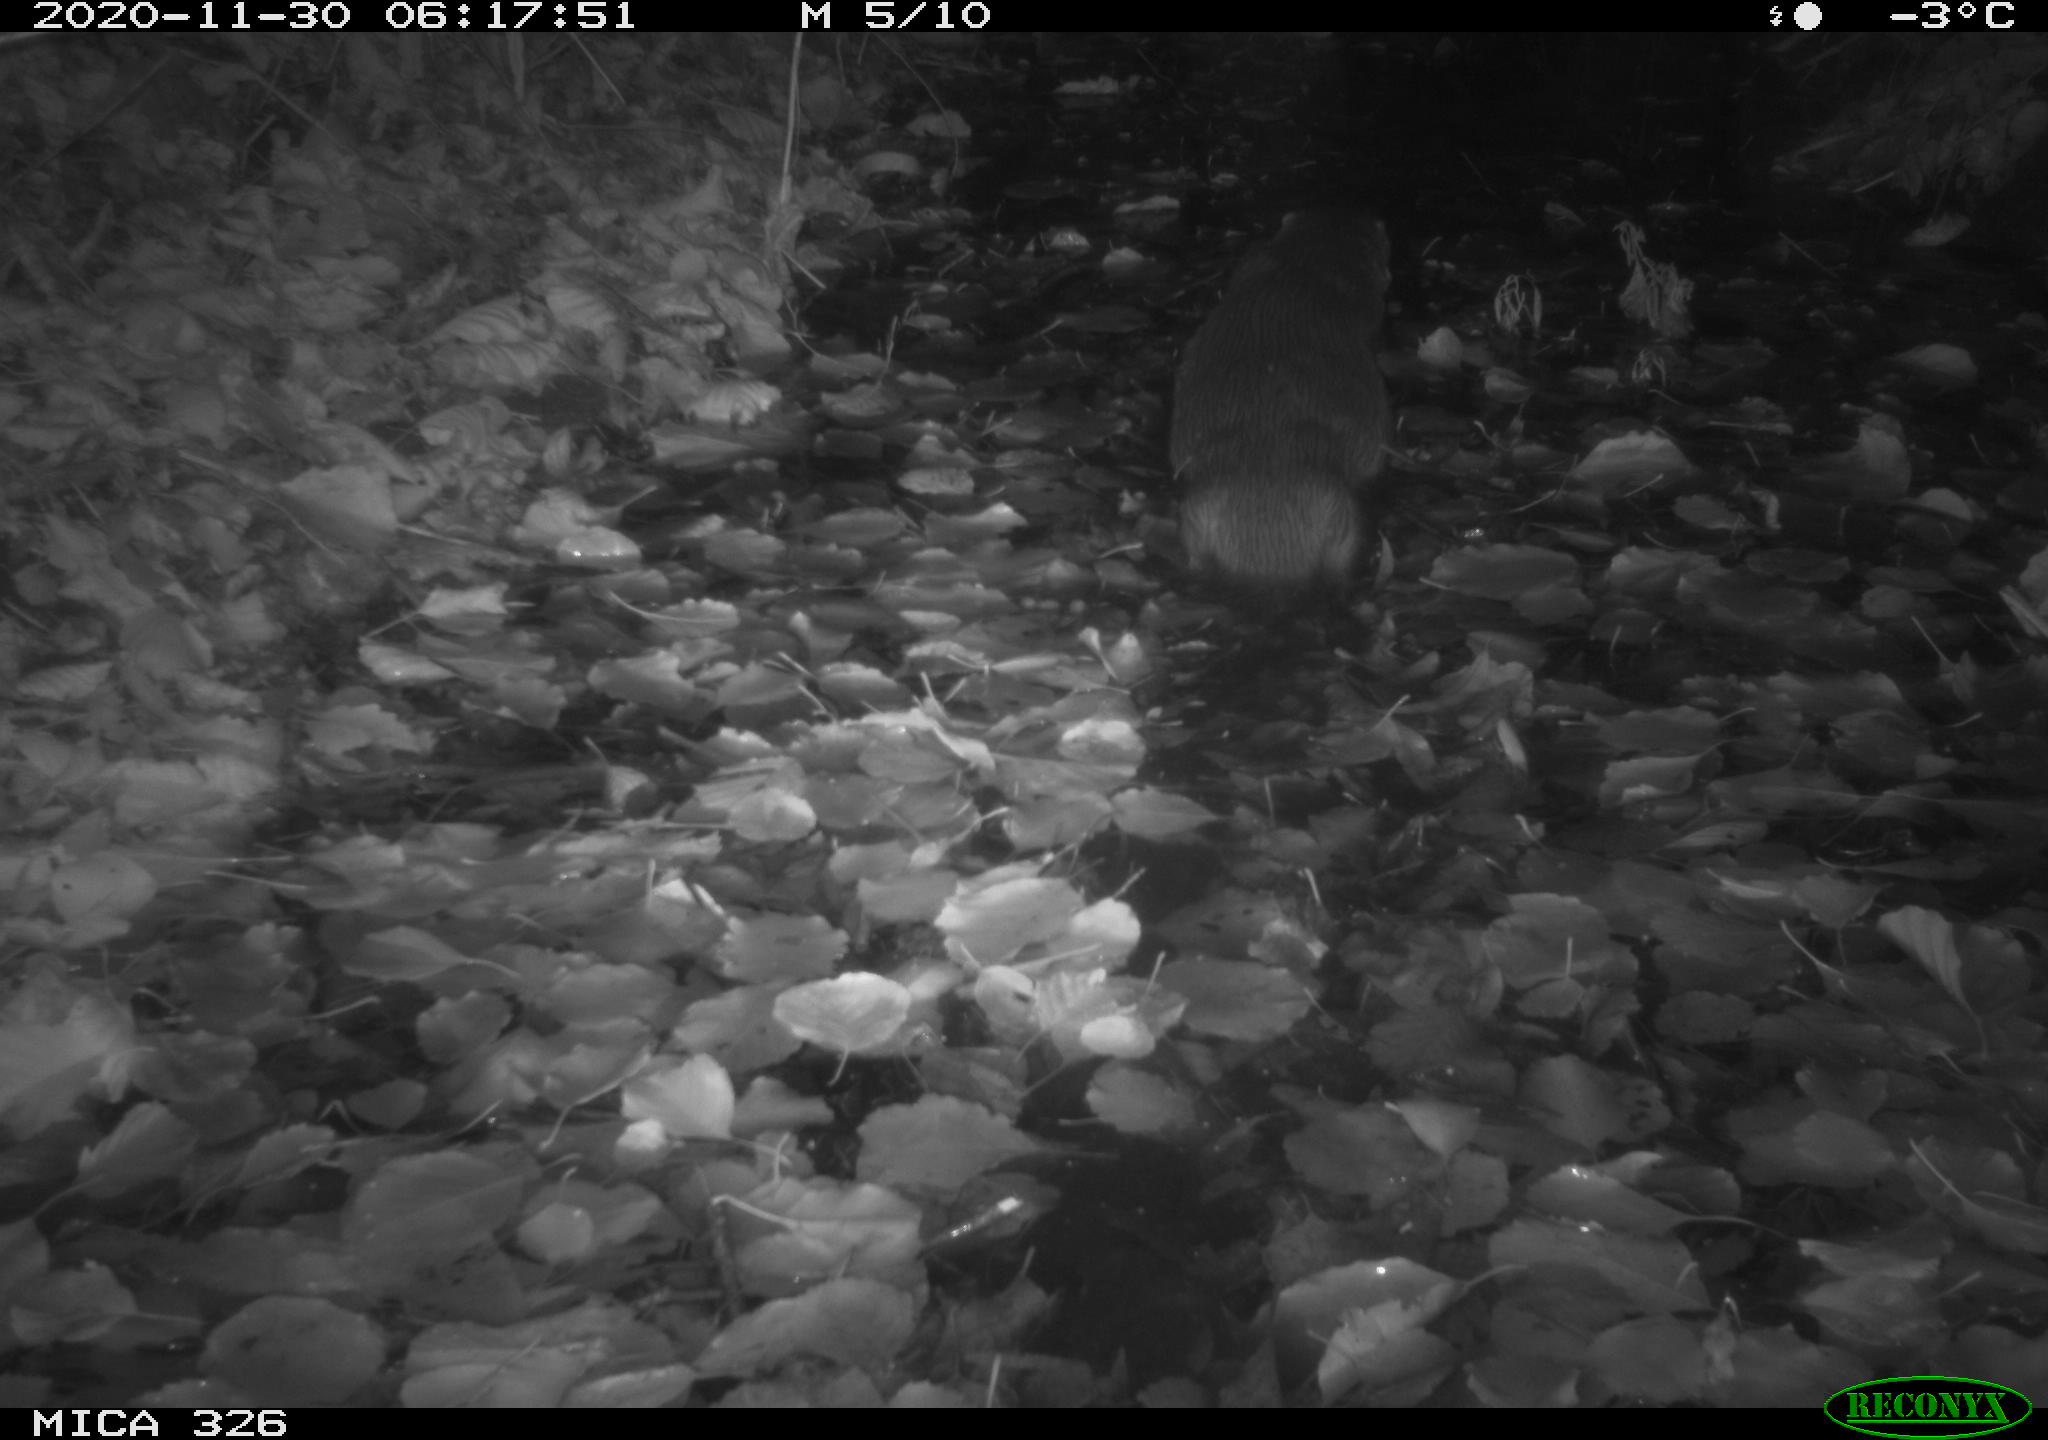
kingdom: Animalia
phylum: Chordata
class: Mammalia
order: Carnivora
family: Mustelidae
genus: Lutra
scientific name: Lutra lutra
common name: European otter
